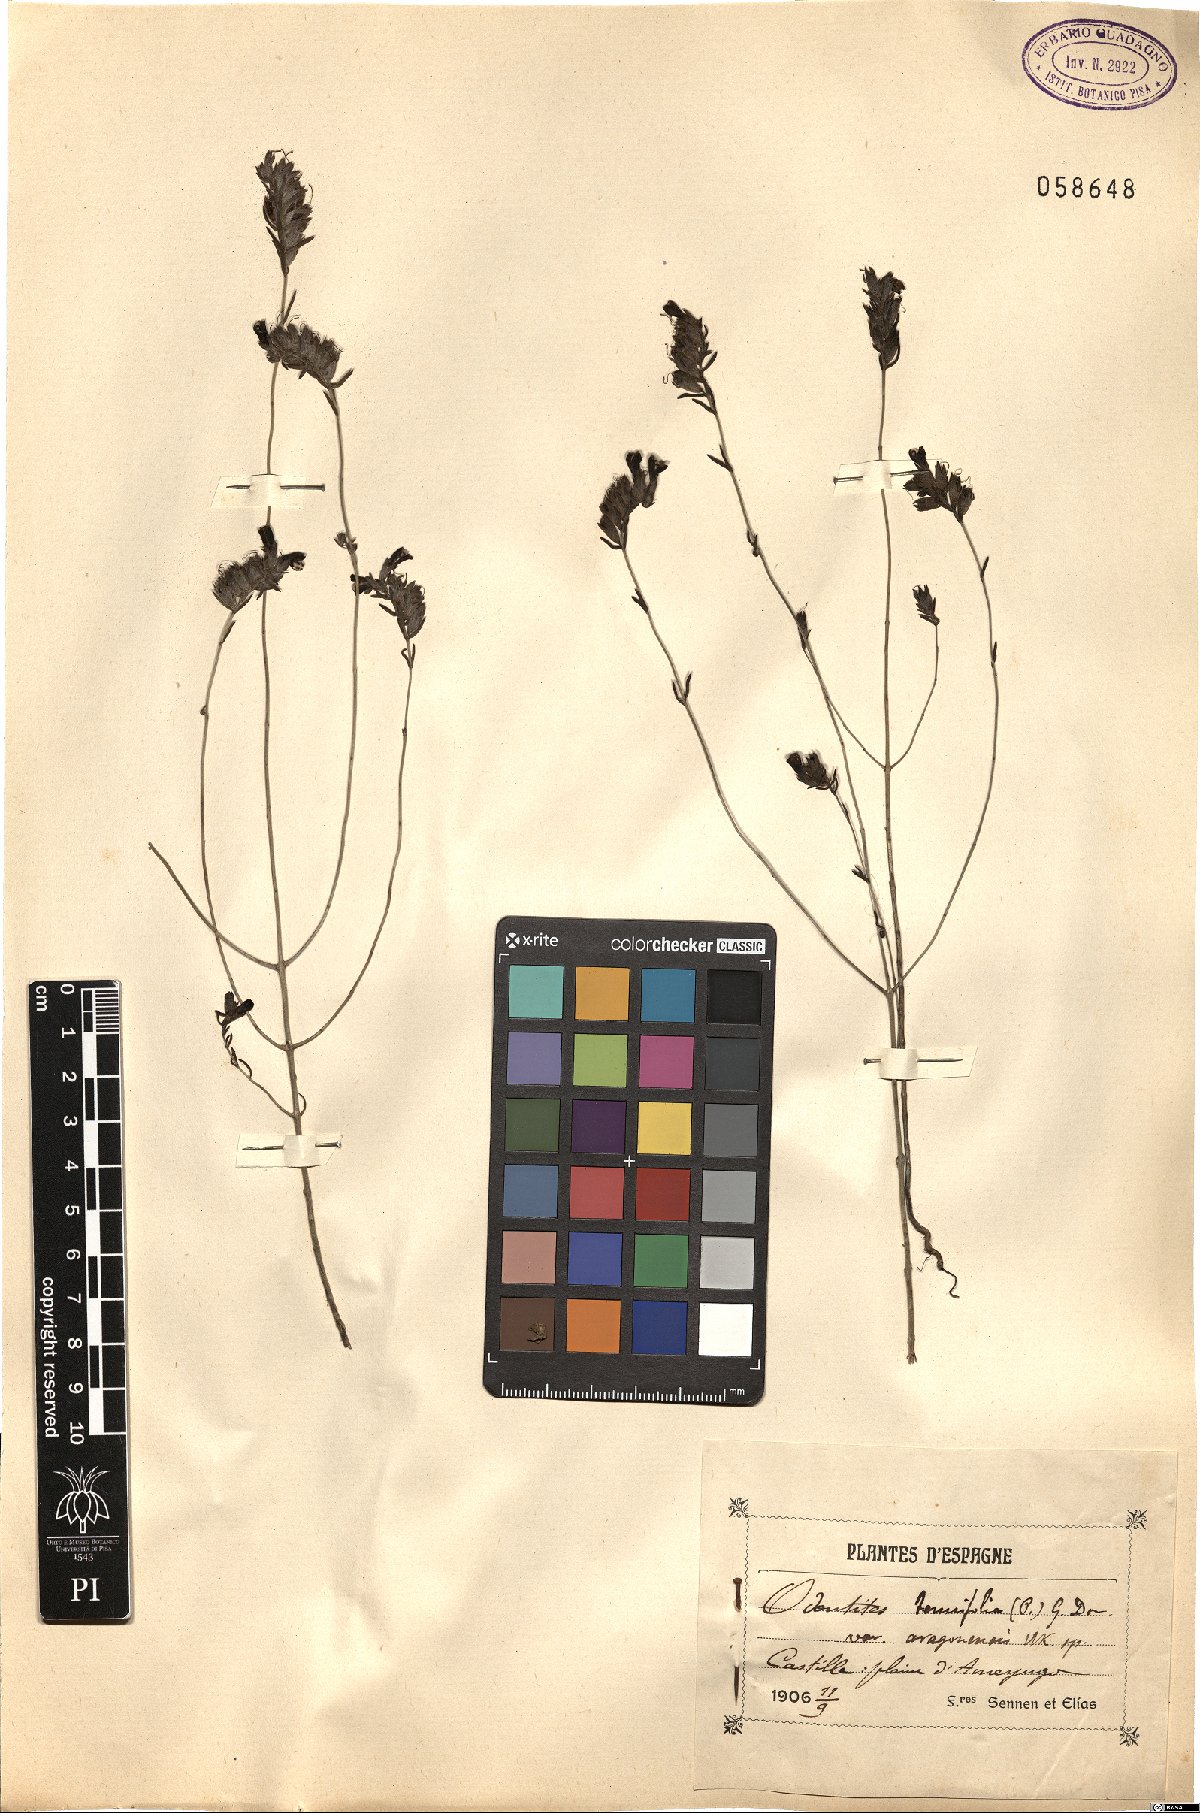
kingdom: Plantae
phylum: Tracheophyta
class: Magnoliopsida
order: Lamiales
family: Orobanchaceae
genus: Odontitella
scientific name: Odontitella virgata
